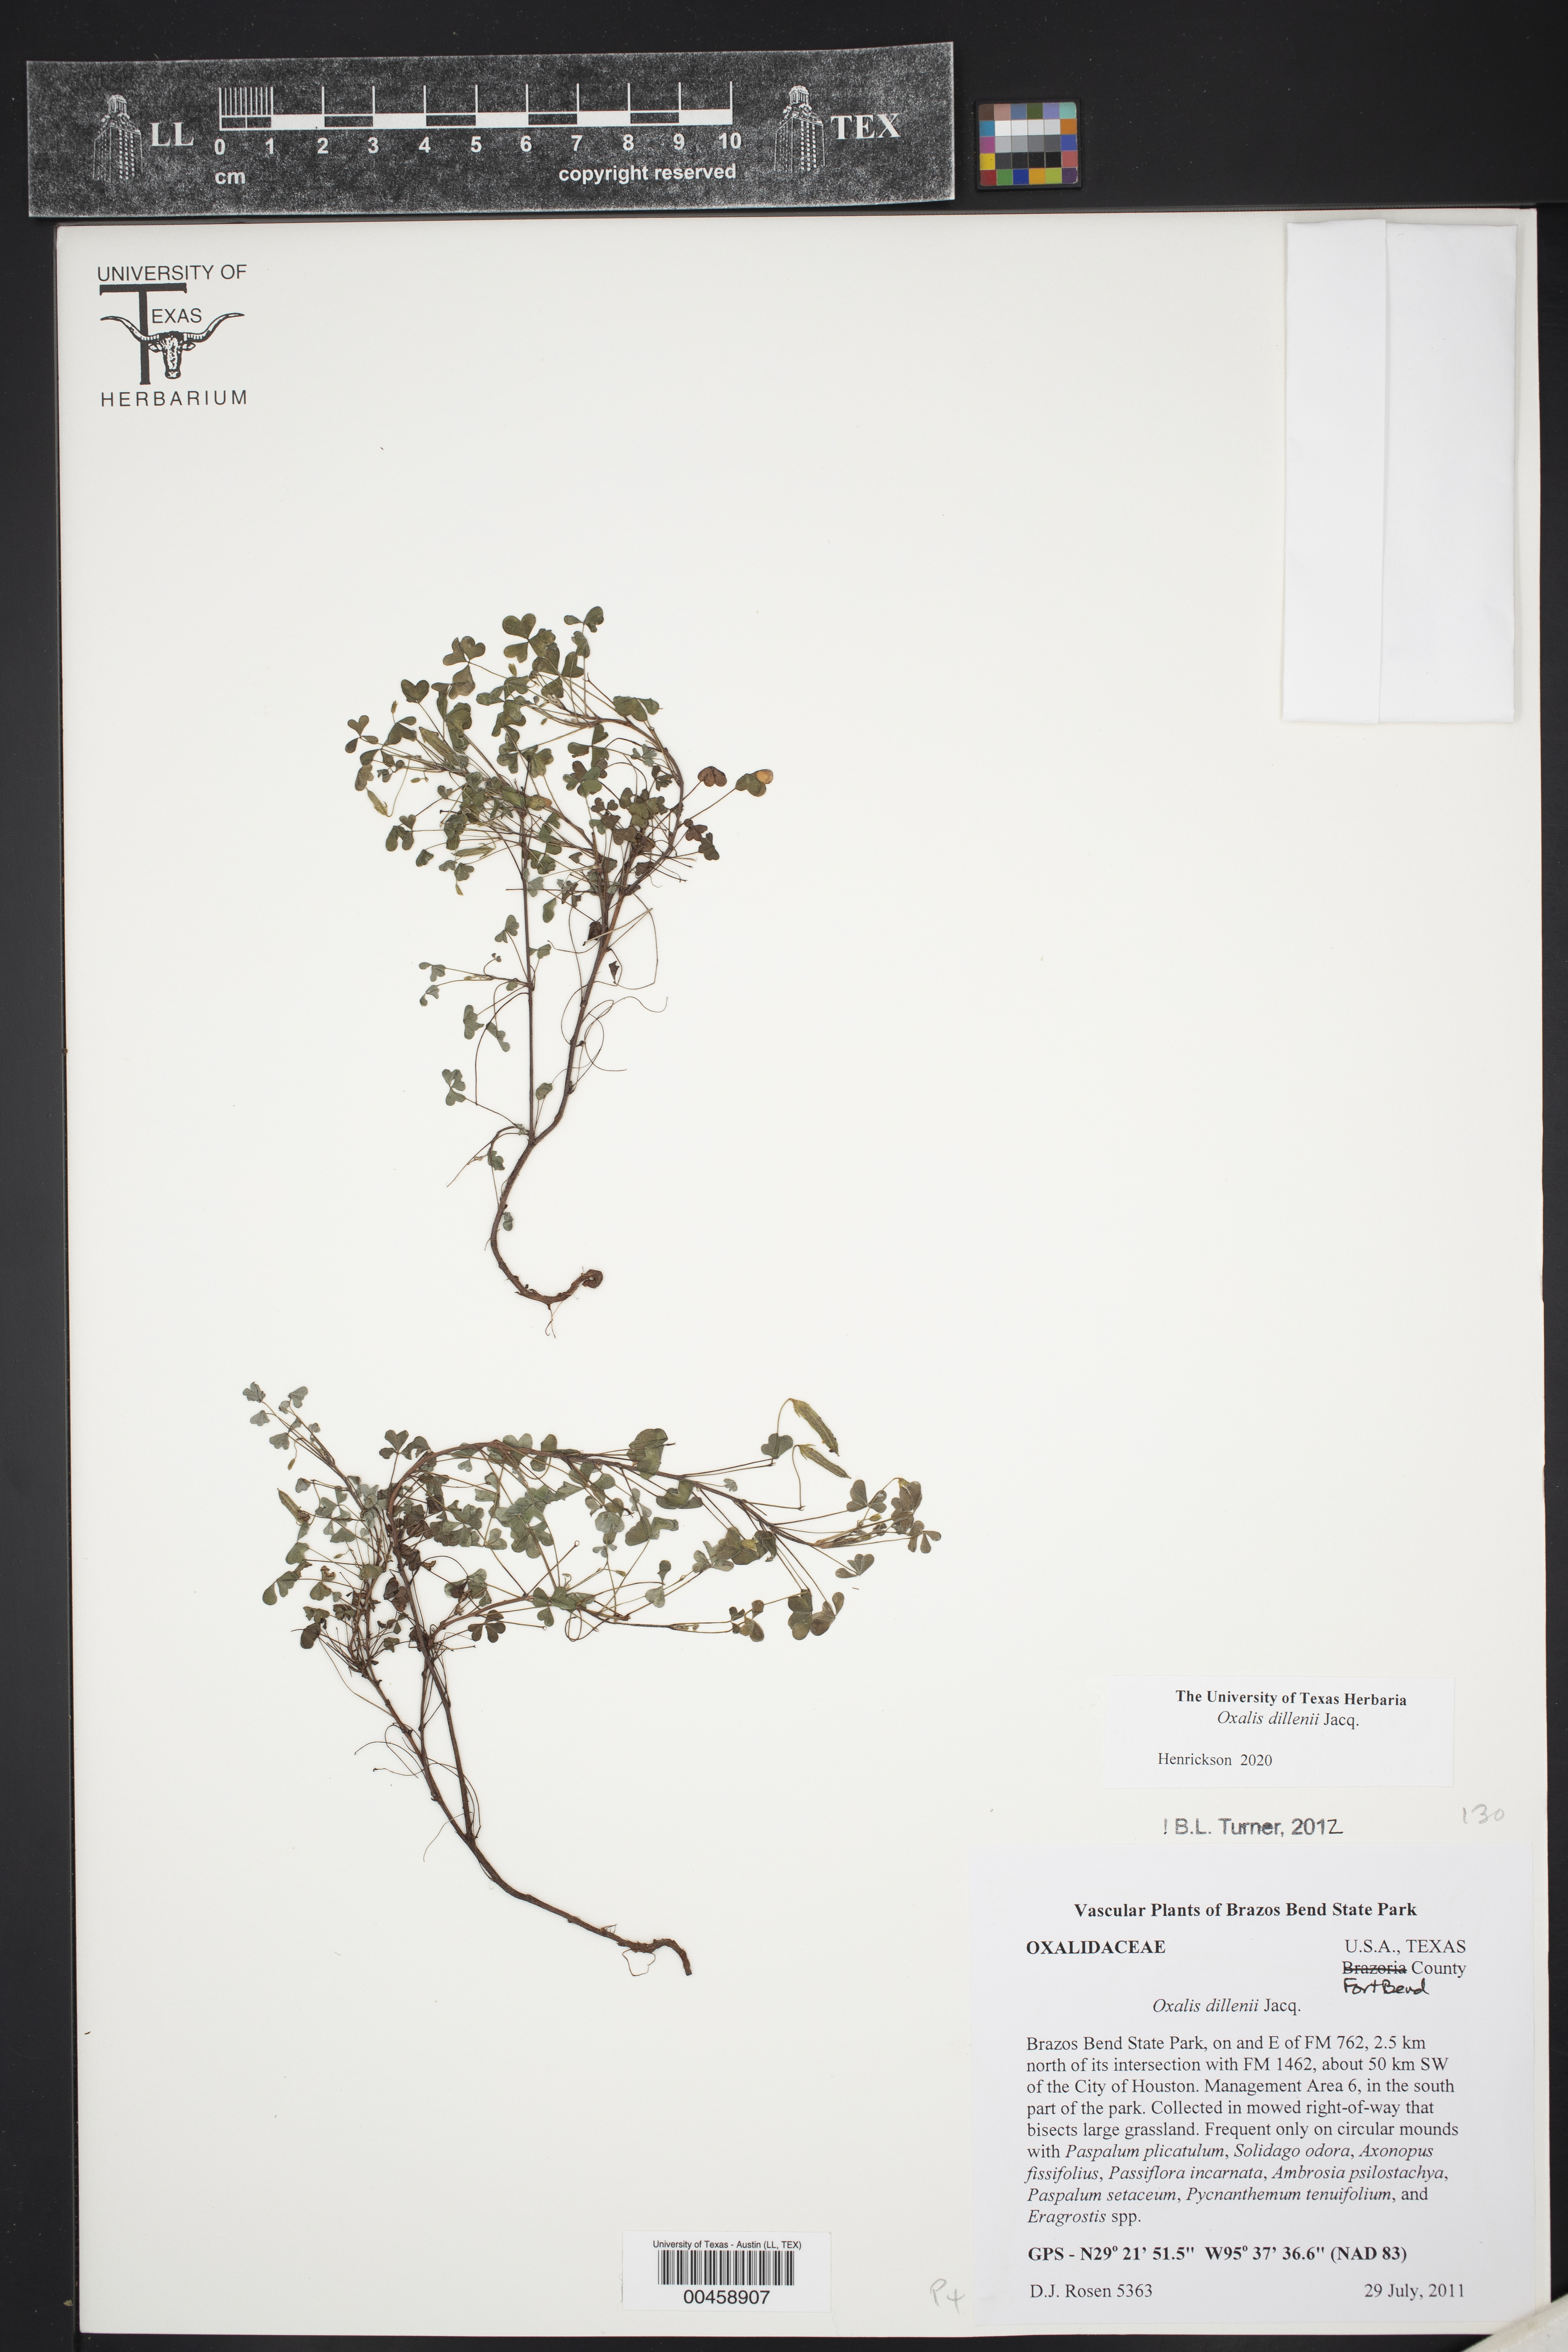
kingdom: Plantae
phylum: Tracheophyta
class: Magnoliopsida
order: Oxalidales
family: Oxalidaceae
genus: Oxalis
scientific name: Oxalis dillenii
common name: Sussex yellow-sorrel
